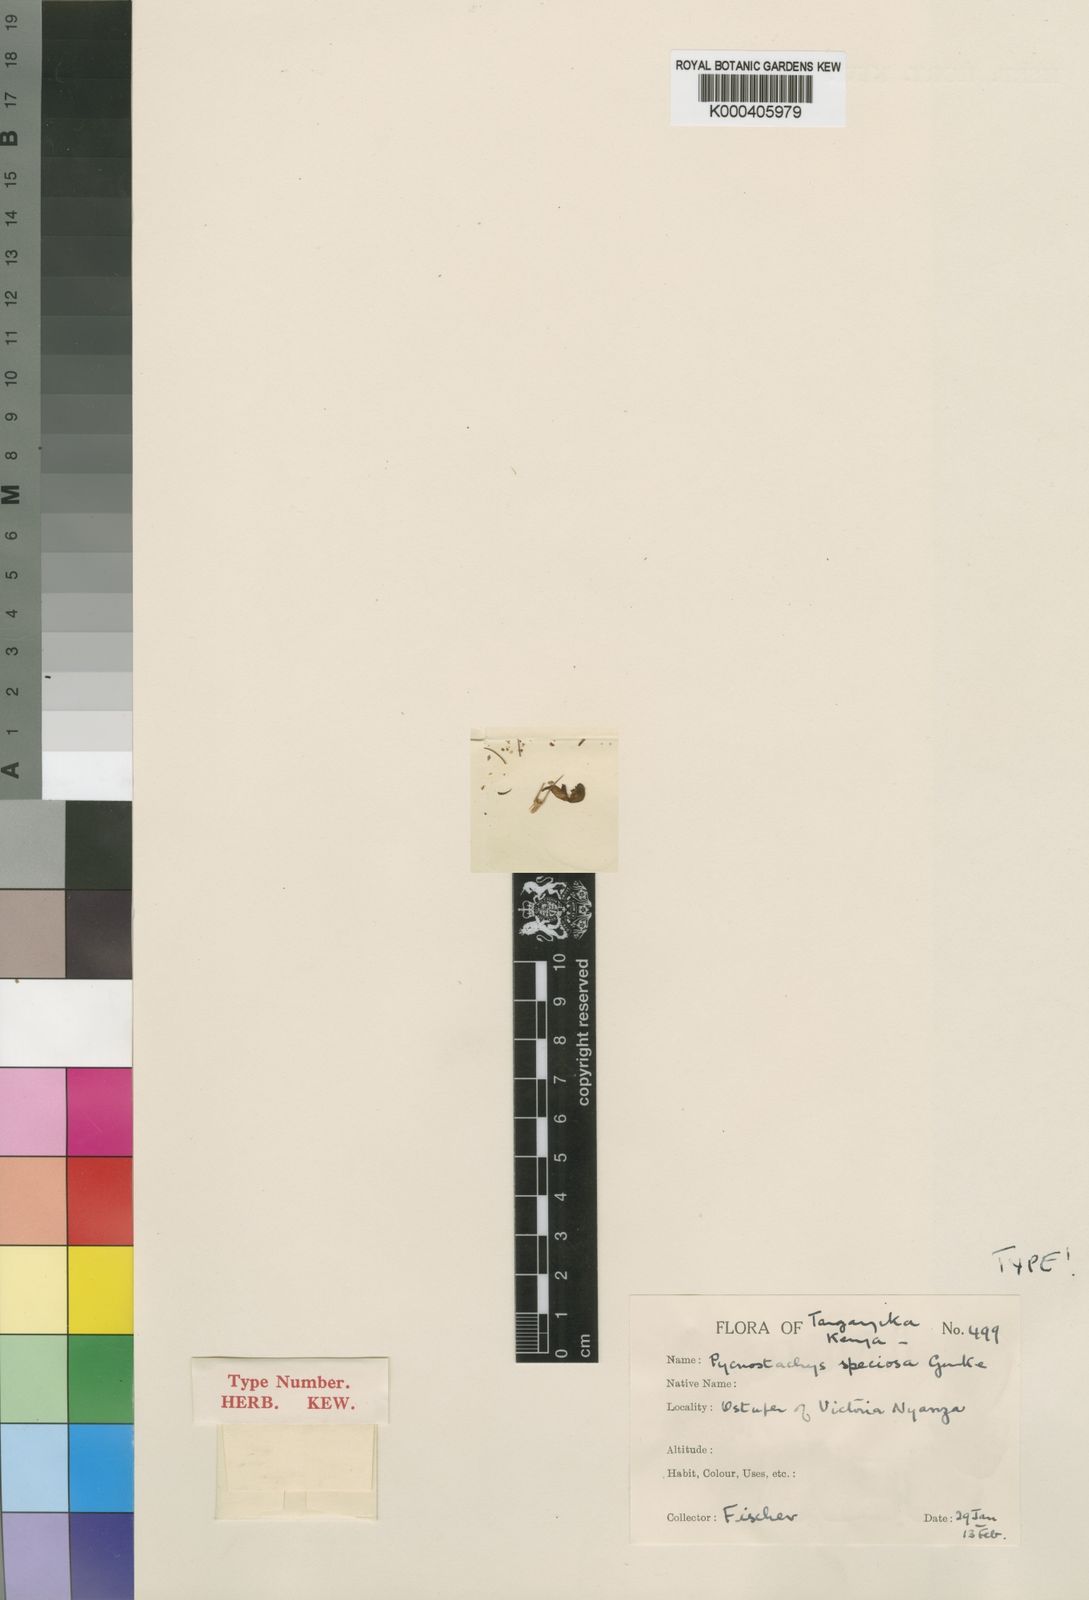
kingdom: Plantae
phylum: Tracheophyta
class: Magnoliopsida
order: Lamiales
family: Lamiaceae
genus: Coleus
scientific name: Coleus
